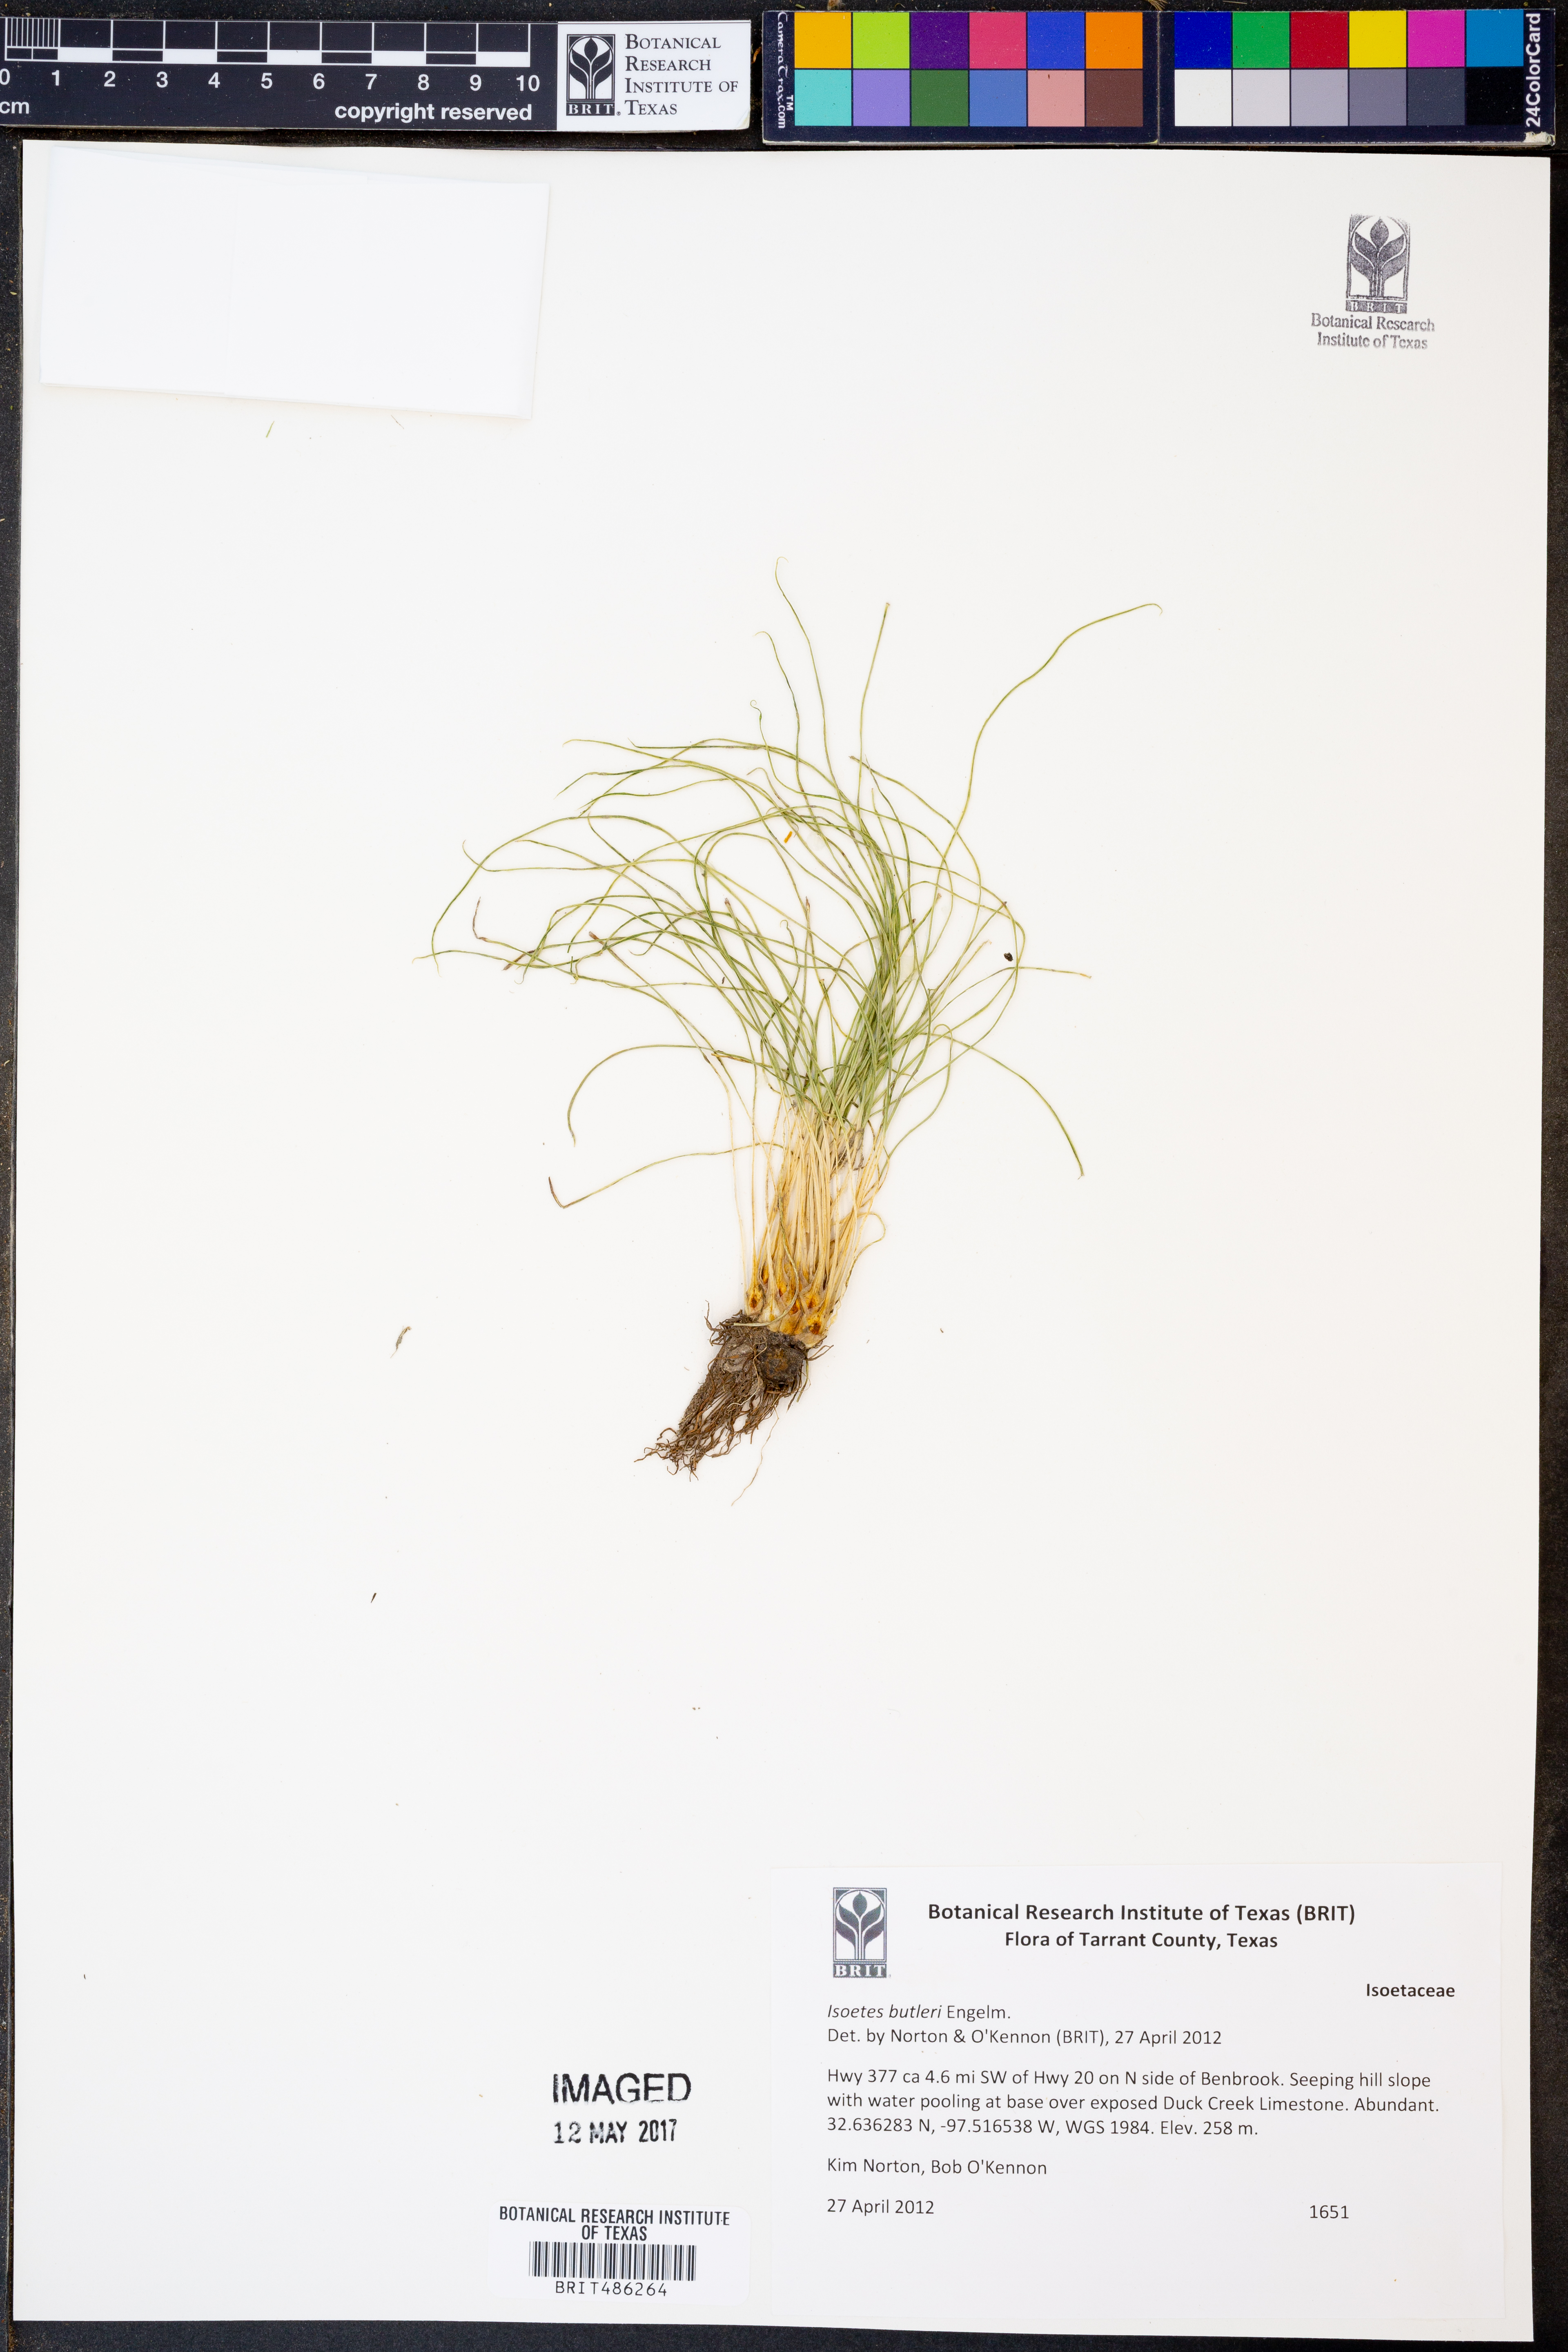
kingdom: Plantae
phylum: Tracheophyta
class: Lycopodiopsida
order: Isoetales
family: Isoetaceae
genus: Isoetes
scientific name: Isoetes butleri
